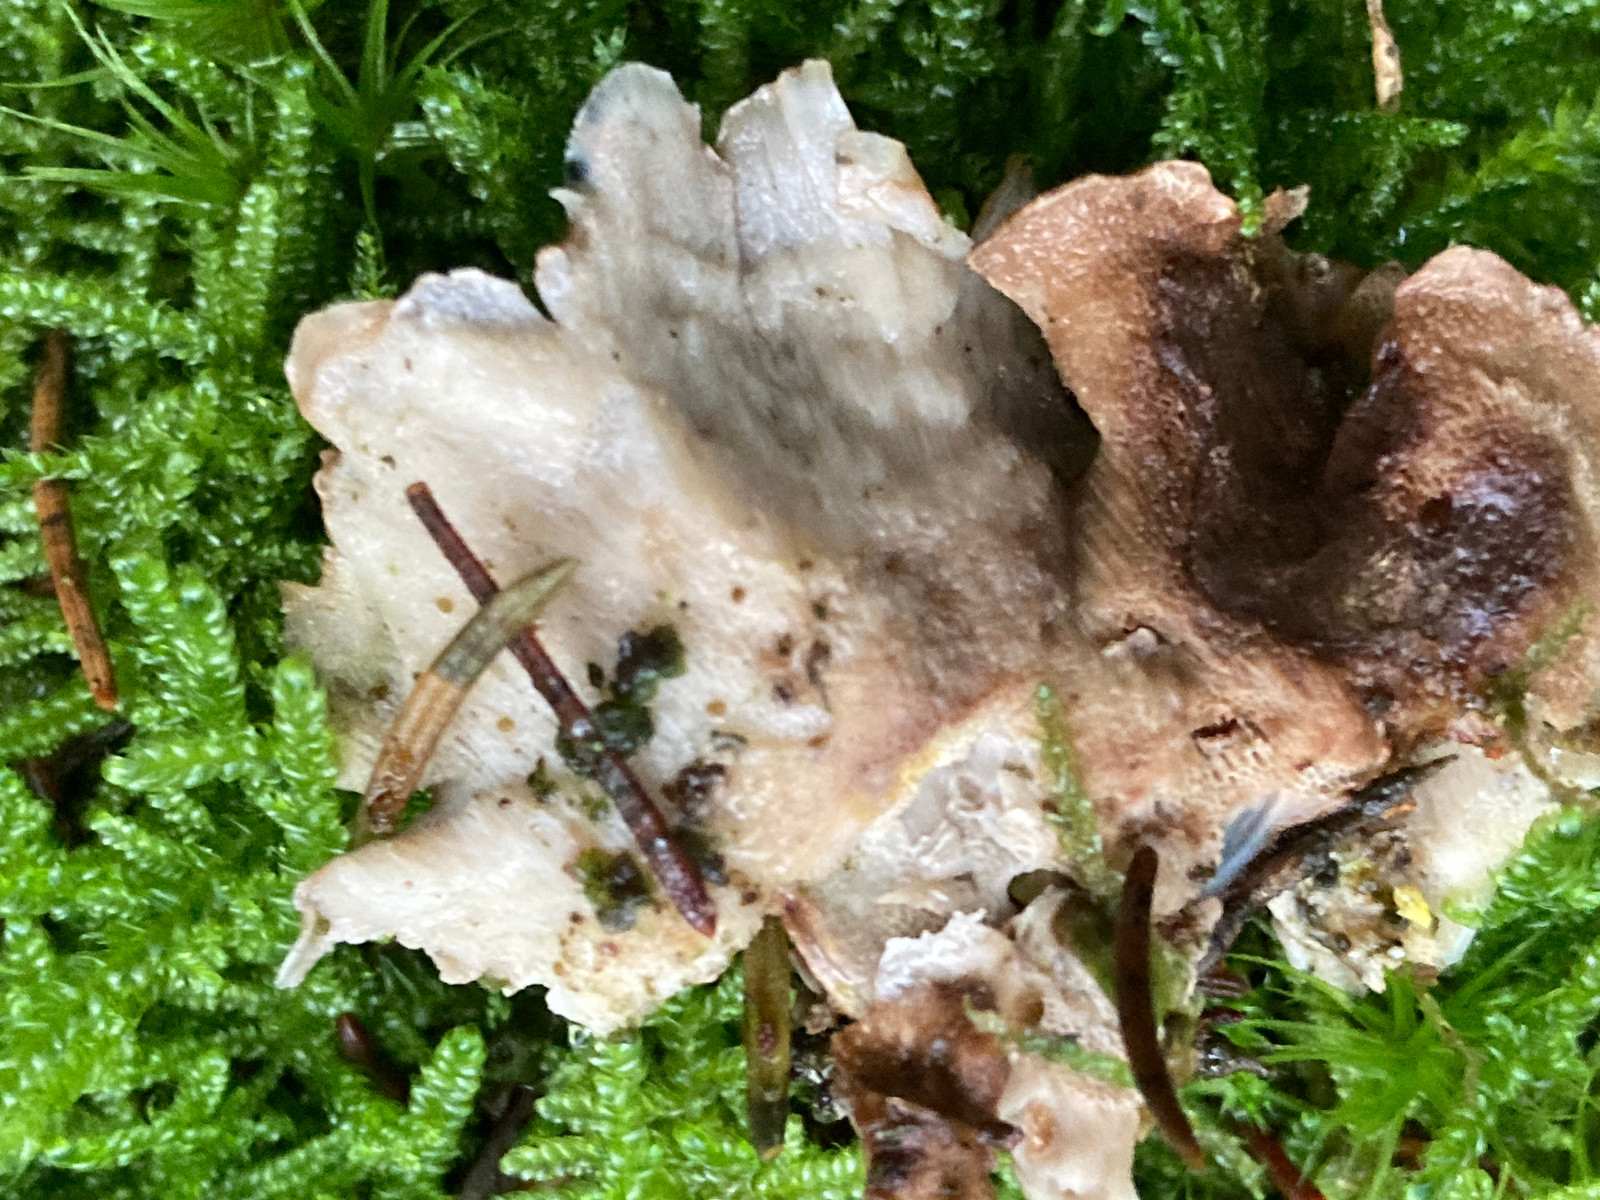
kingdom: Fungi
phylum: Basidiomycota
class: Agaricomycetes
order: Polyporales
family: Dacryobolaceae
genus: Oligoporus
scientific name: Oligoporus wakefieldiae
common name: række-kødporesvamp
